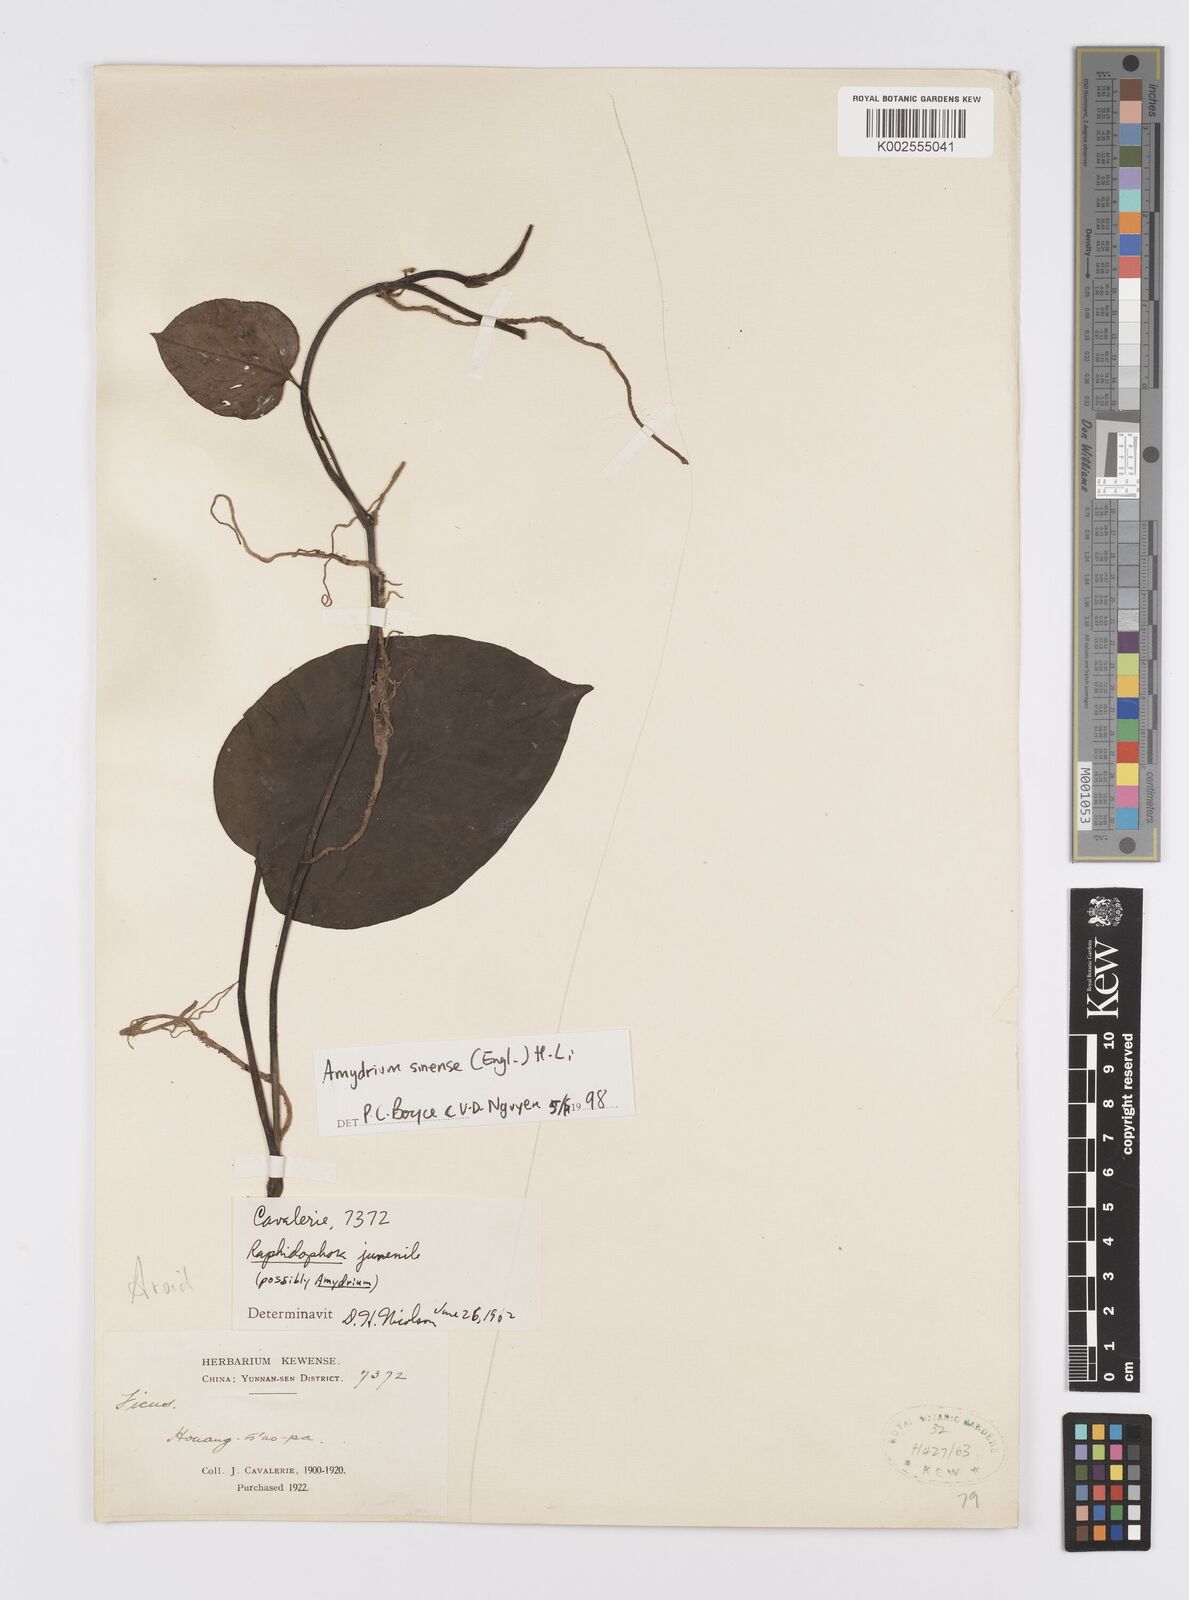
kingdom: Plantae
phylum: Tracheophyta
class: Liliopsida
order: Alismatales
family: Araceae
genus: Amydrium
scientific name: Amydrium sinense
